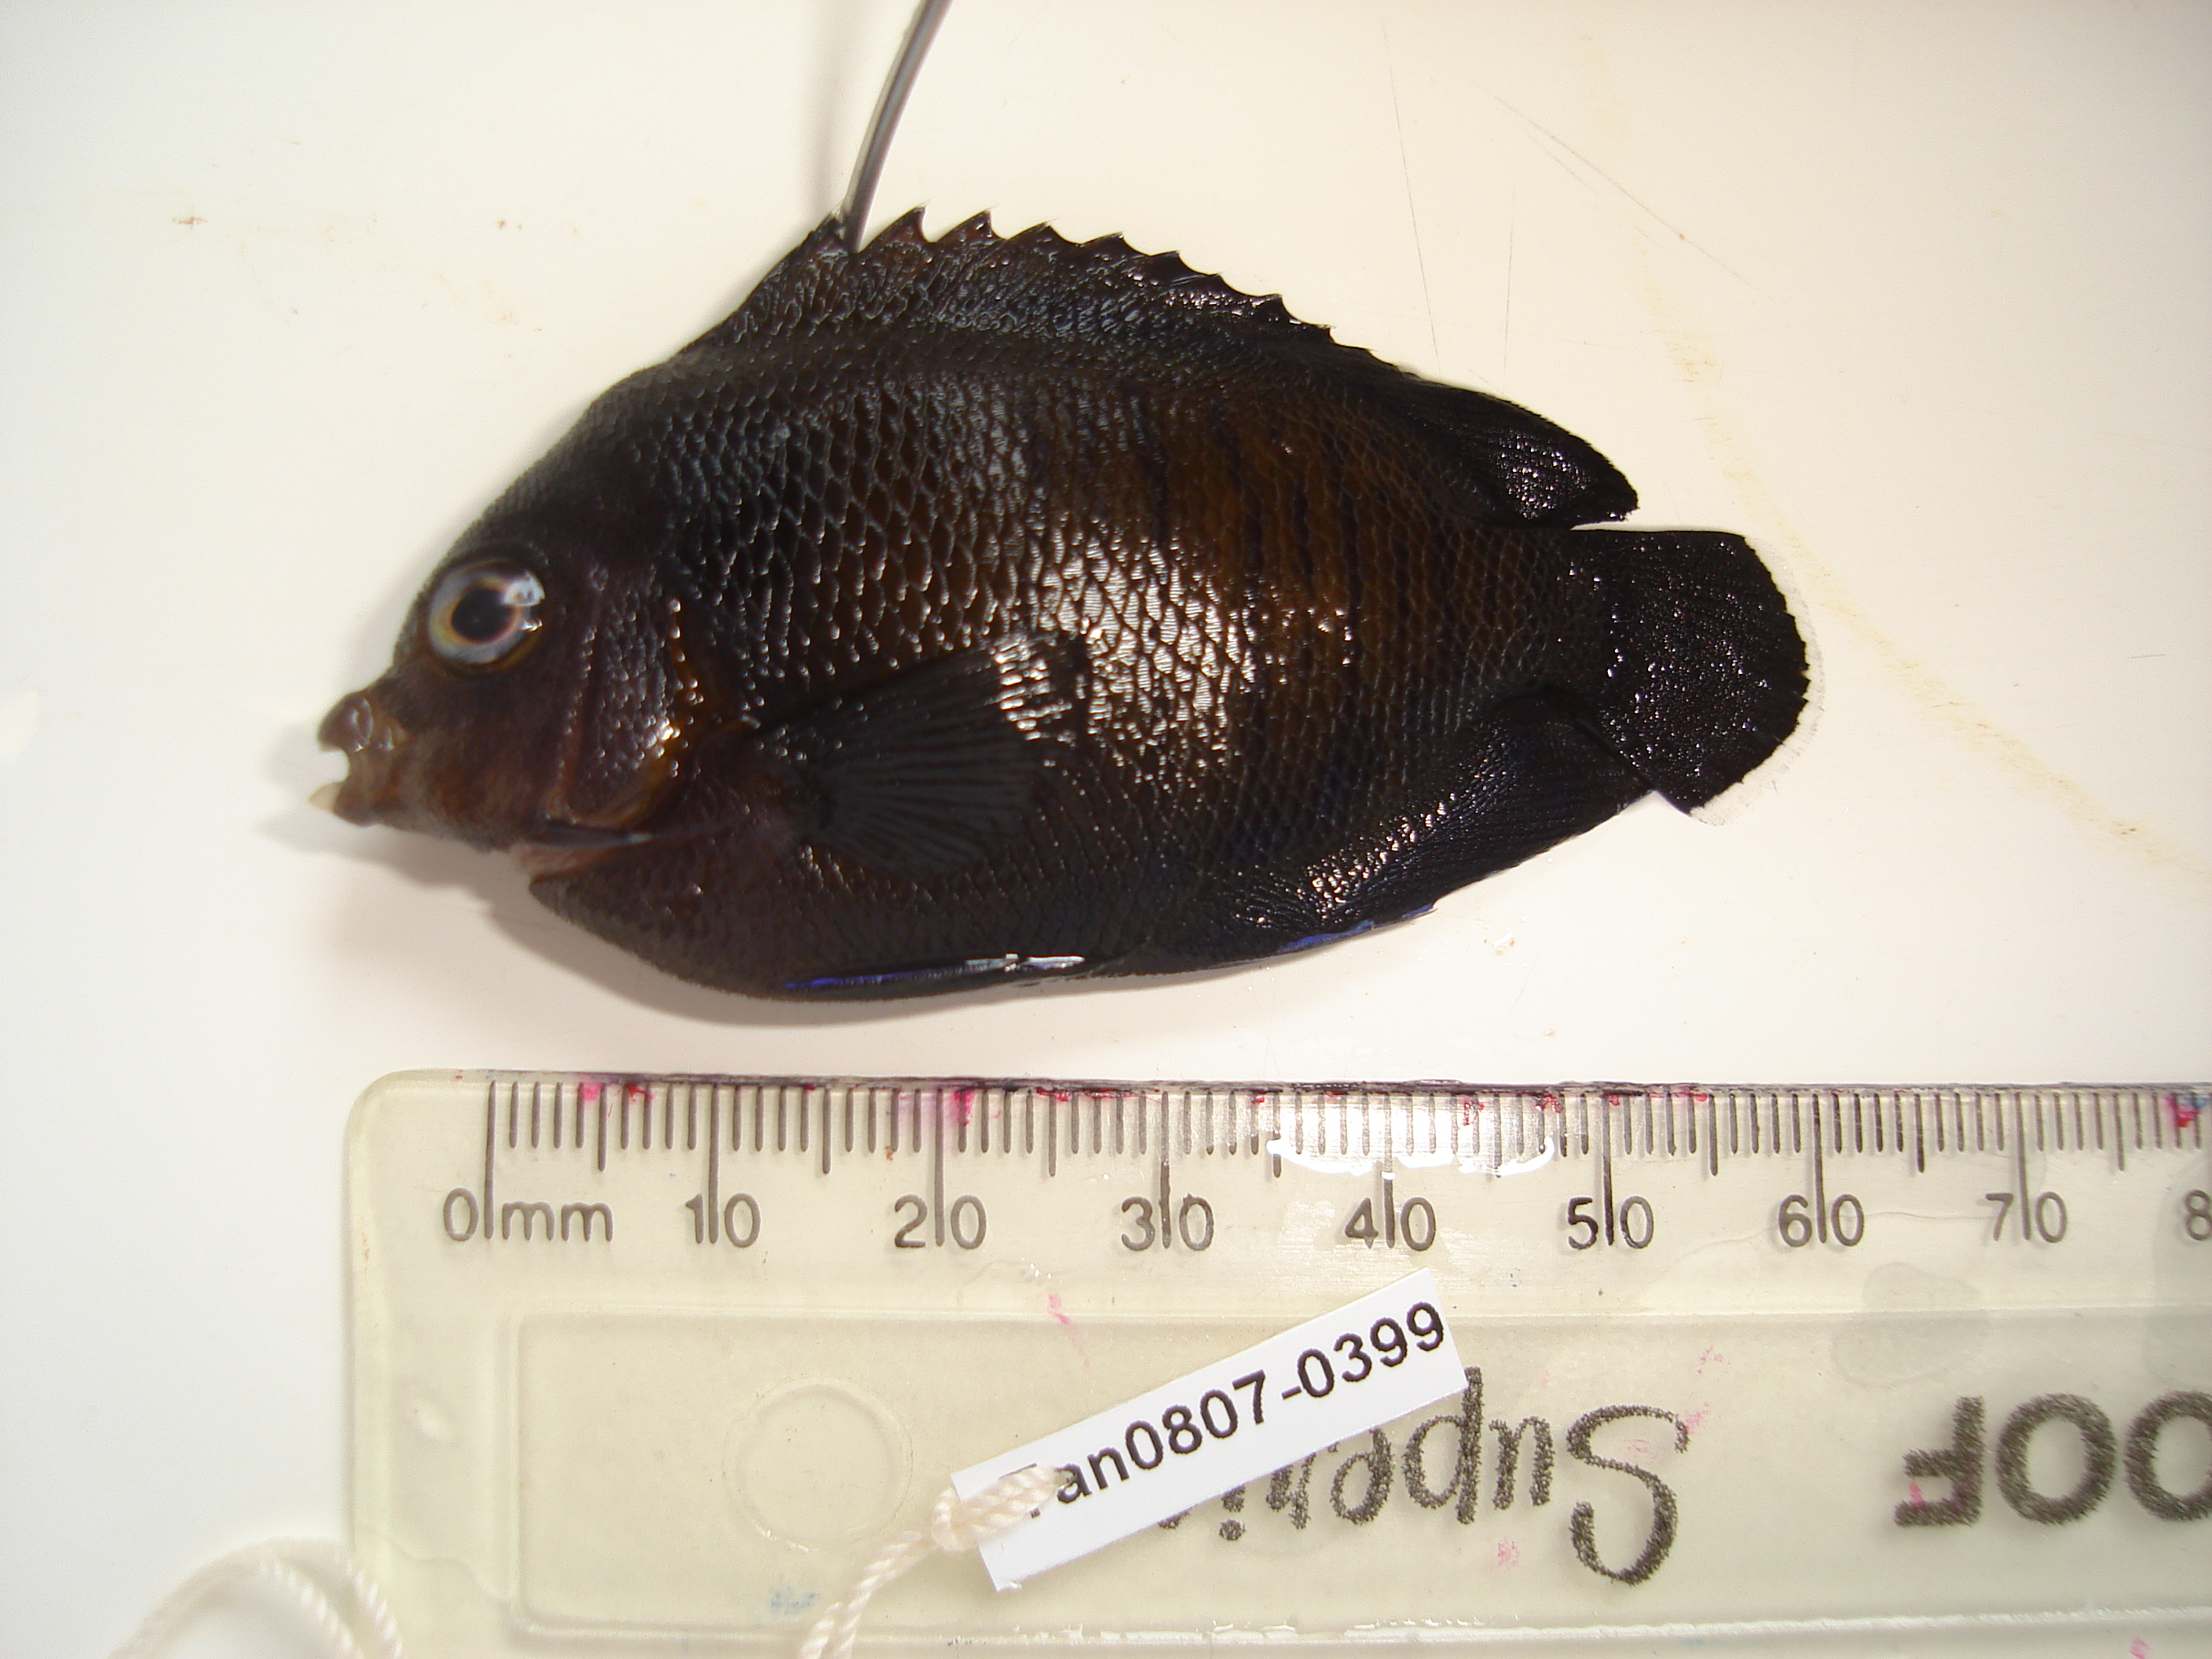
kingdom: Animalia
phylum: Chordata
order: Perciformes
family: Pomacanthidae
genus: Centropyge
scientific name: Centropyge multispinis
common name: Many-spined angelfish
